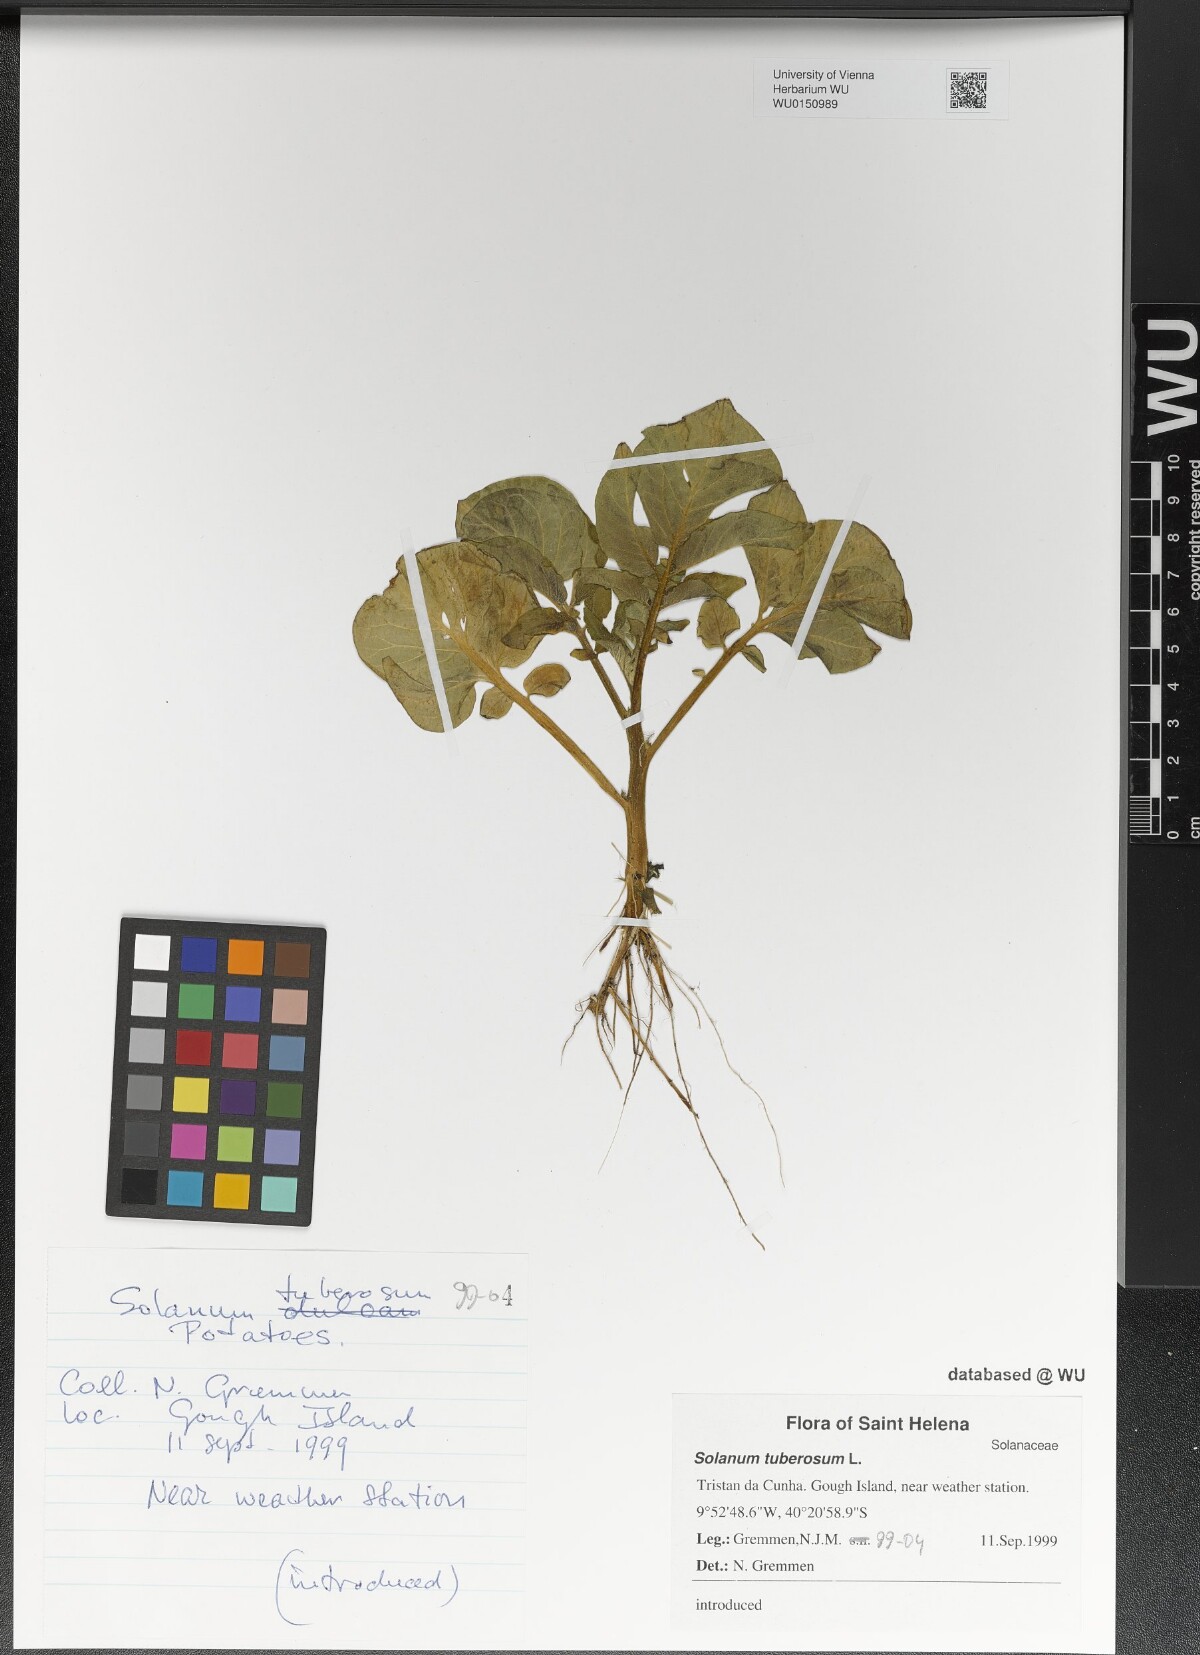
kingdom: Plantae
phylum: Tracheophyta
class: Magnoliopsida
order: Solanales
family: Solanaceae
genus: Solanum
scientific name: Solanum tuberosum
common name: Potato
